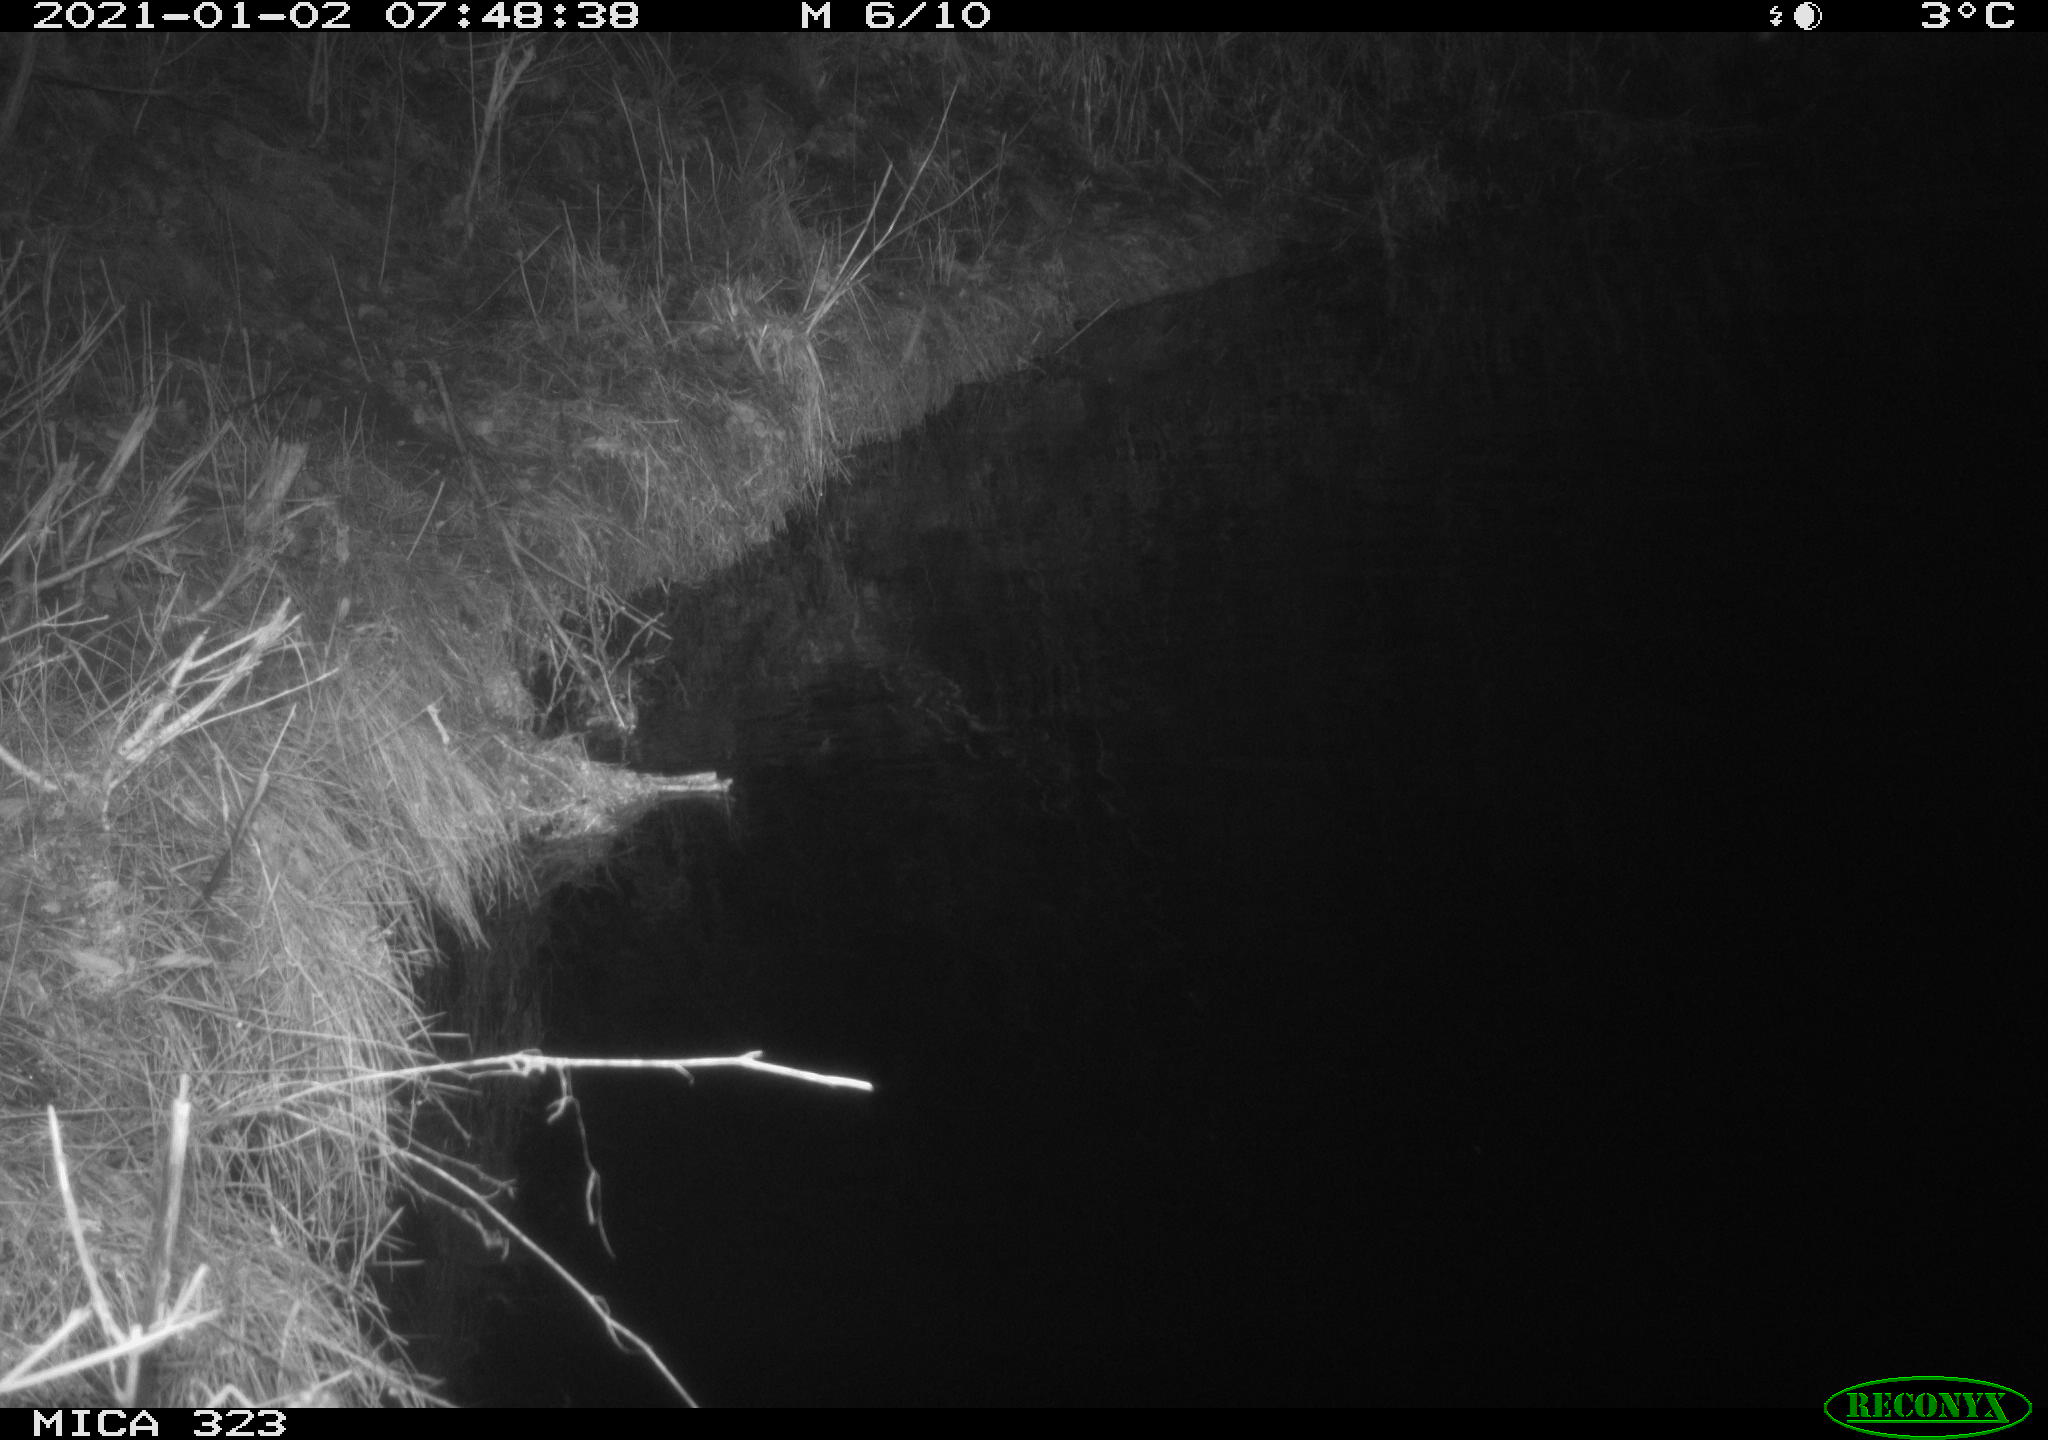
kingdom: Animalia
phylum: Chordata
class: Mammalia
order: Rodentia
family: Myocastoridae
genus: Myocastor
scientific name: Myocastor coypus
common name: Coypu
